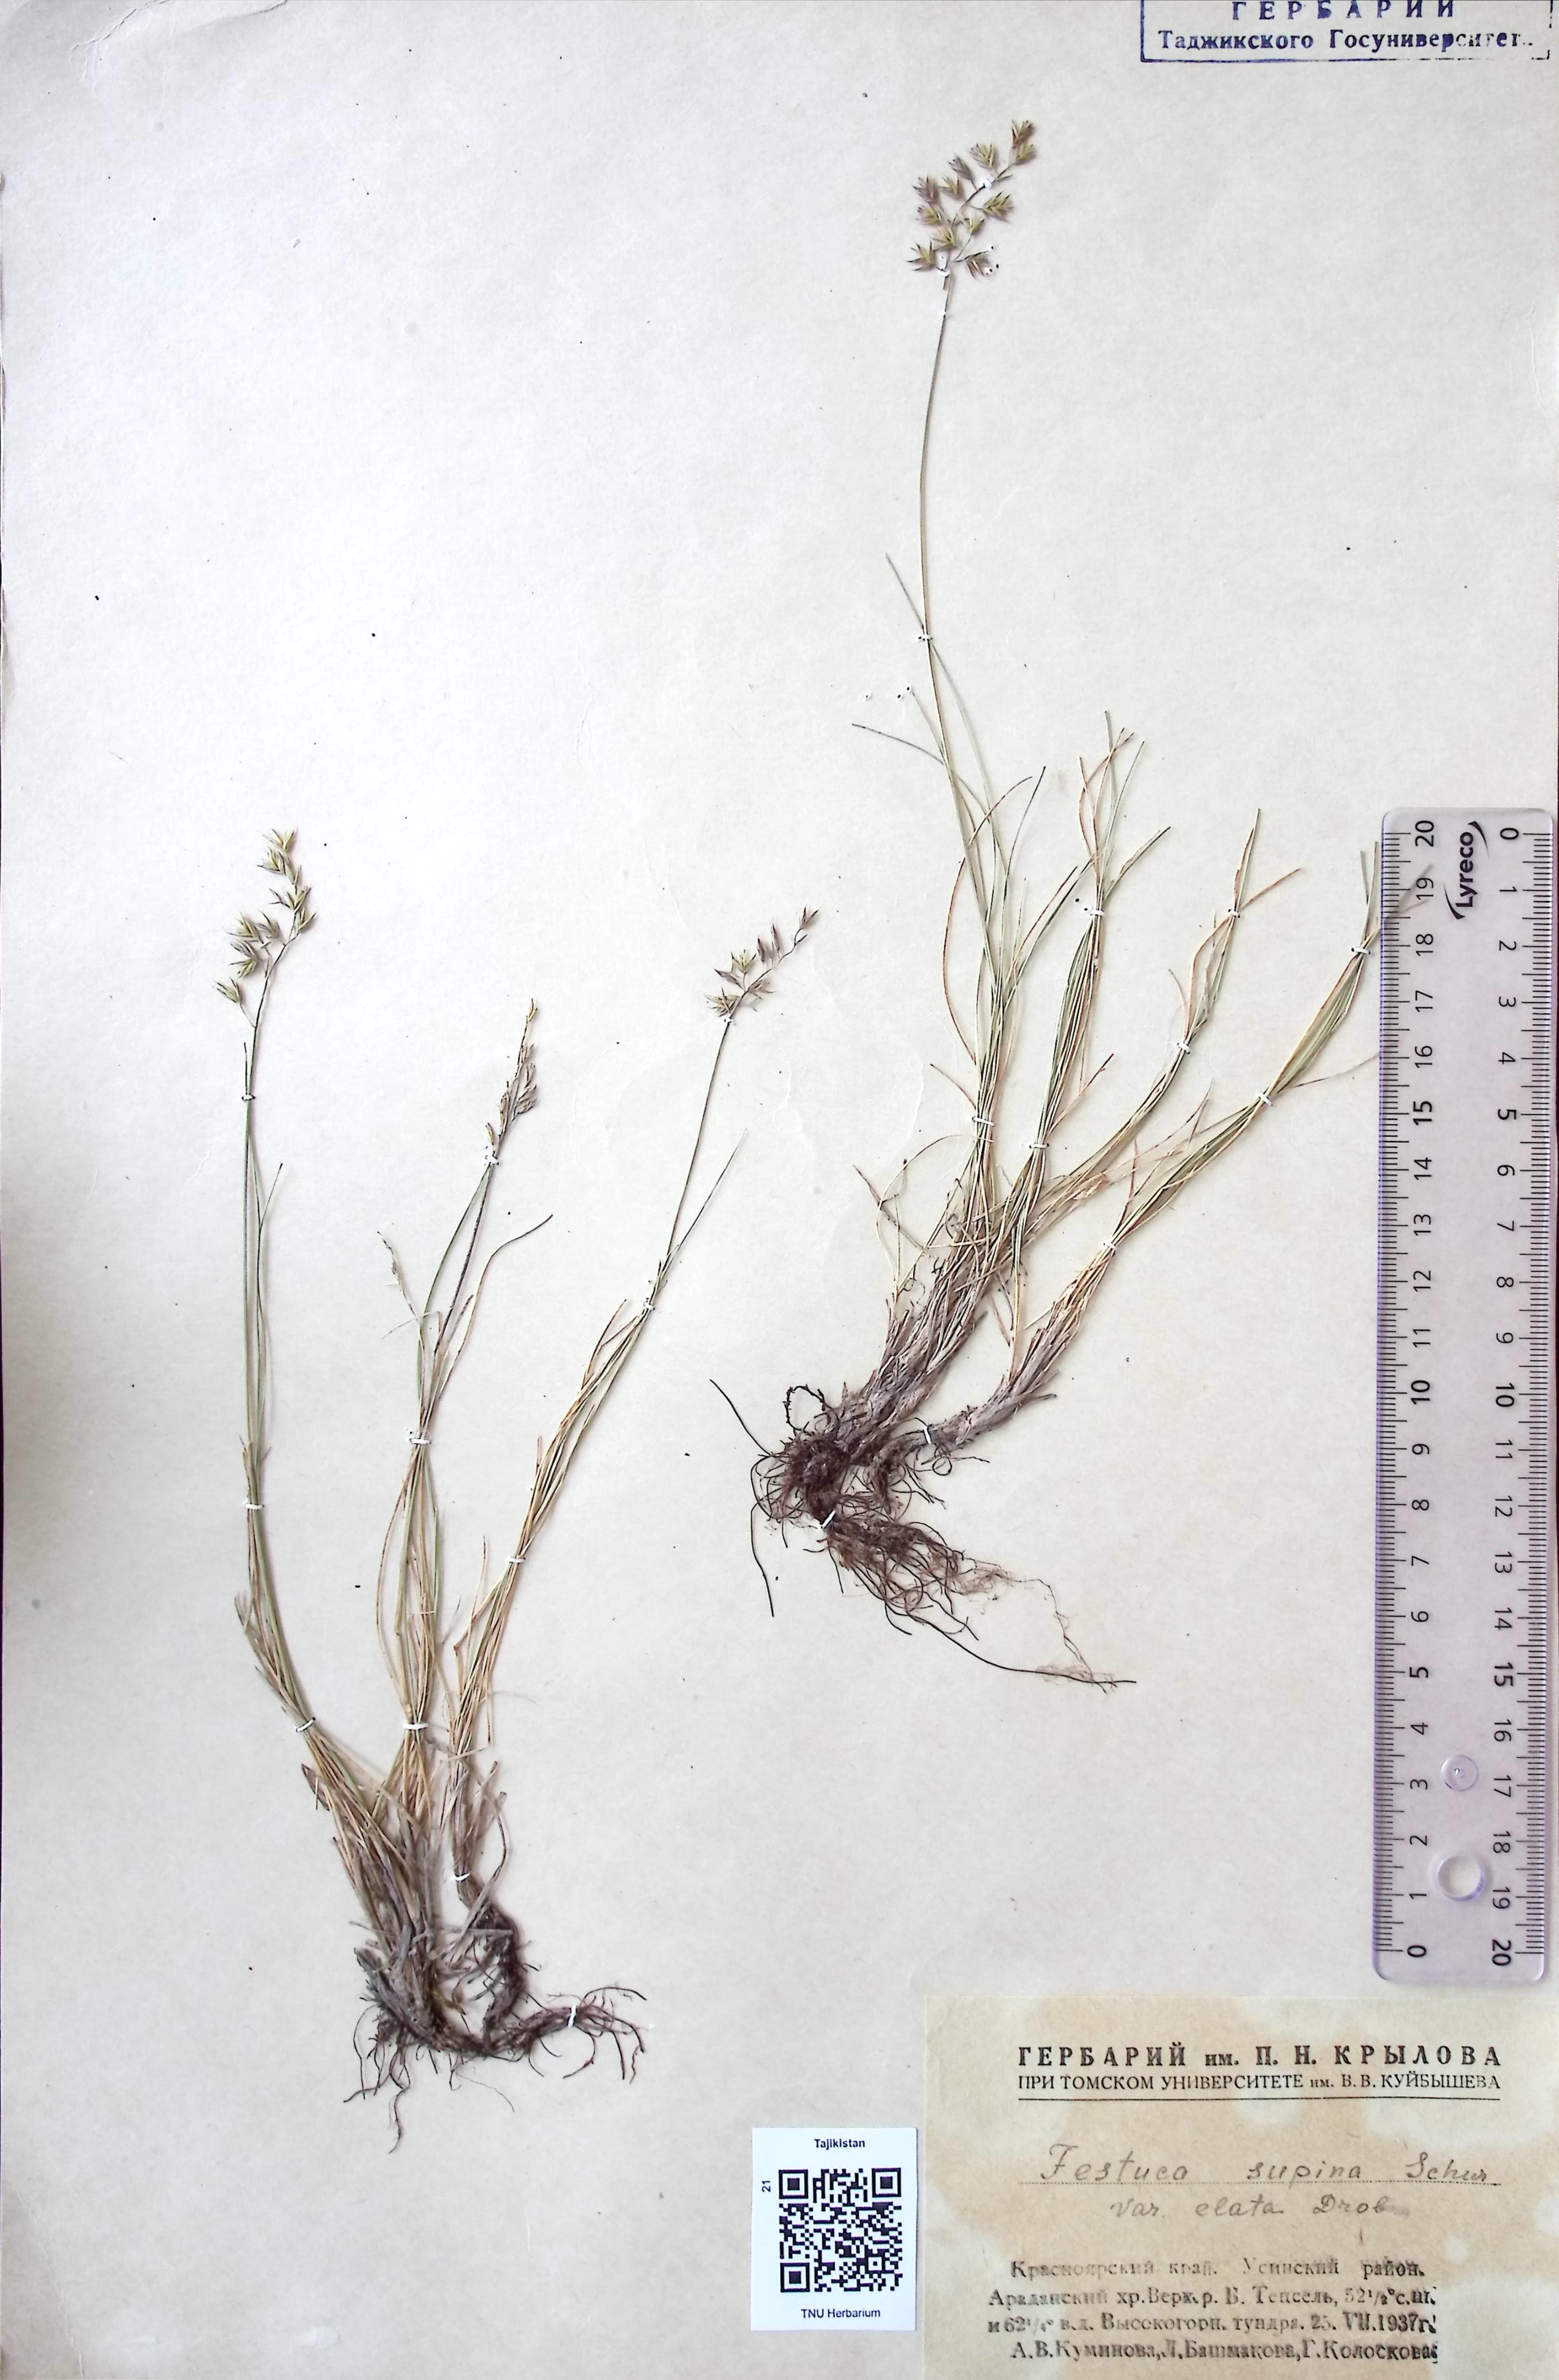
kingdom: Plantae
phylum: Tracheophyta
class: Liliopsida
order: Poales
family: Poaceae
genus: Festuca
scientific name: Festuca supina
